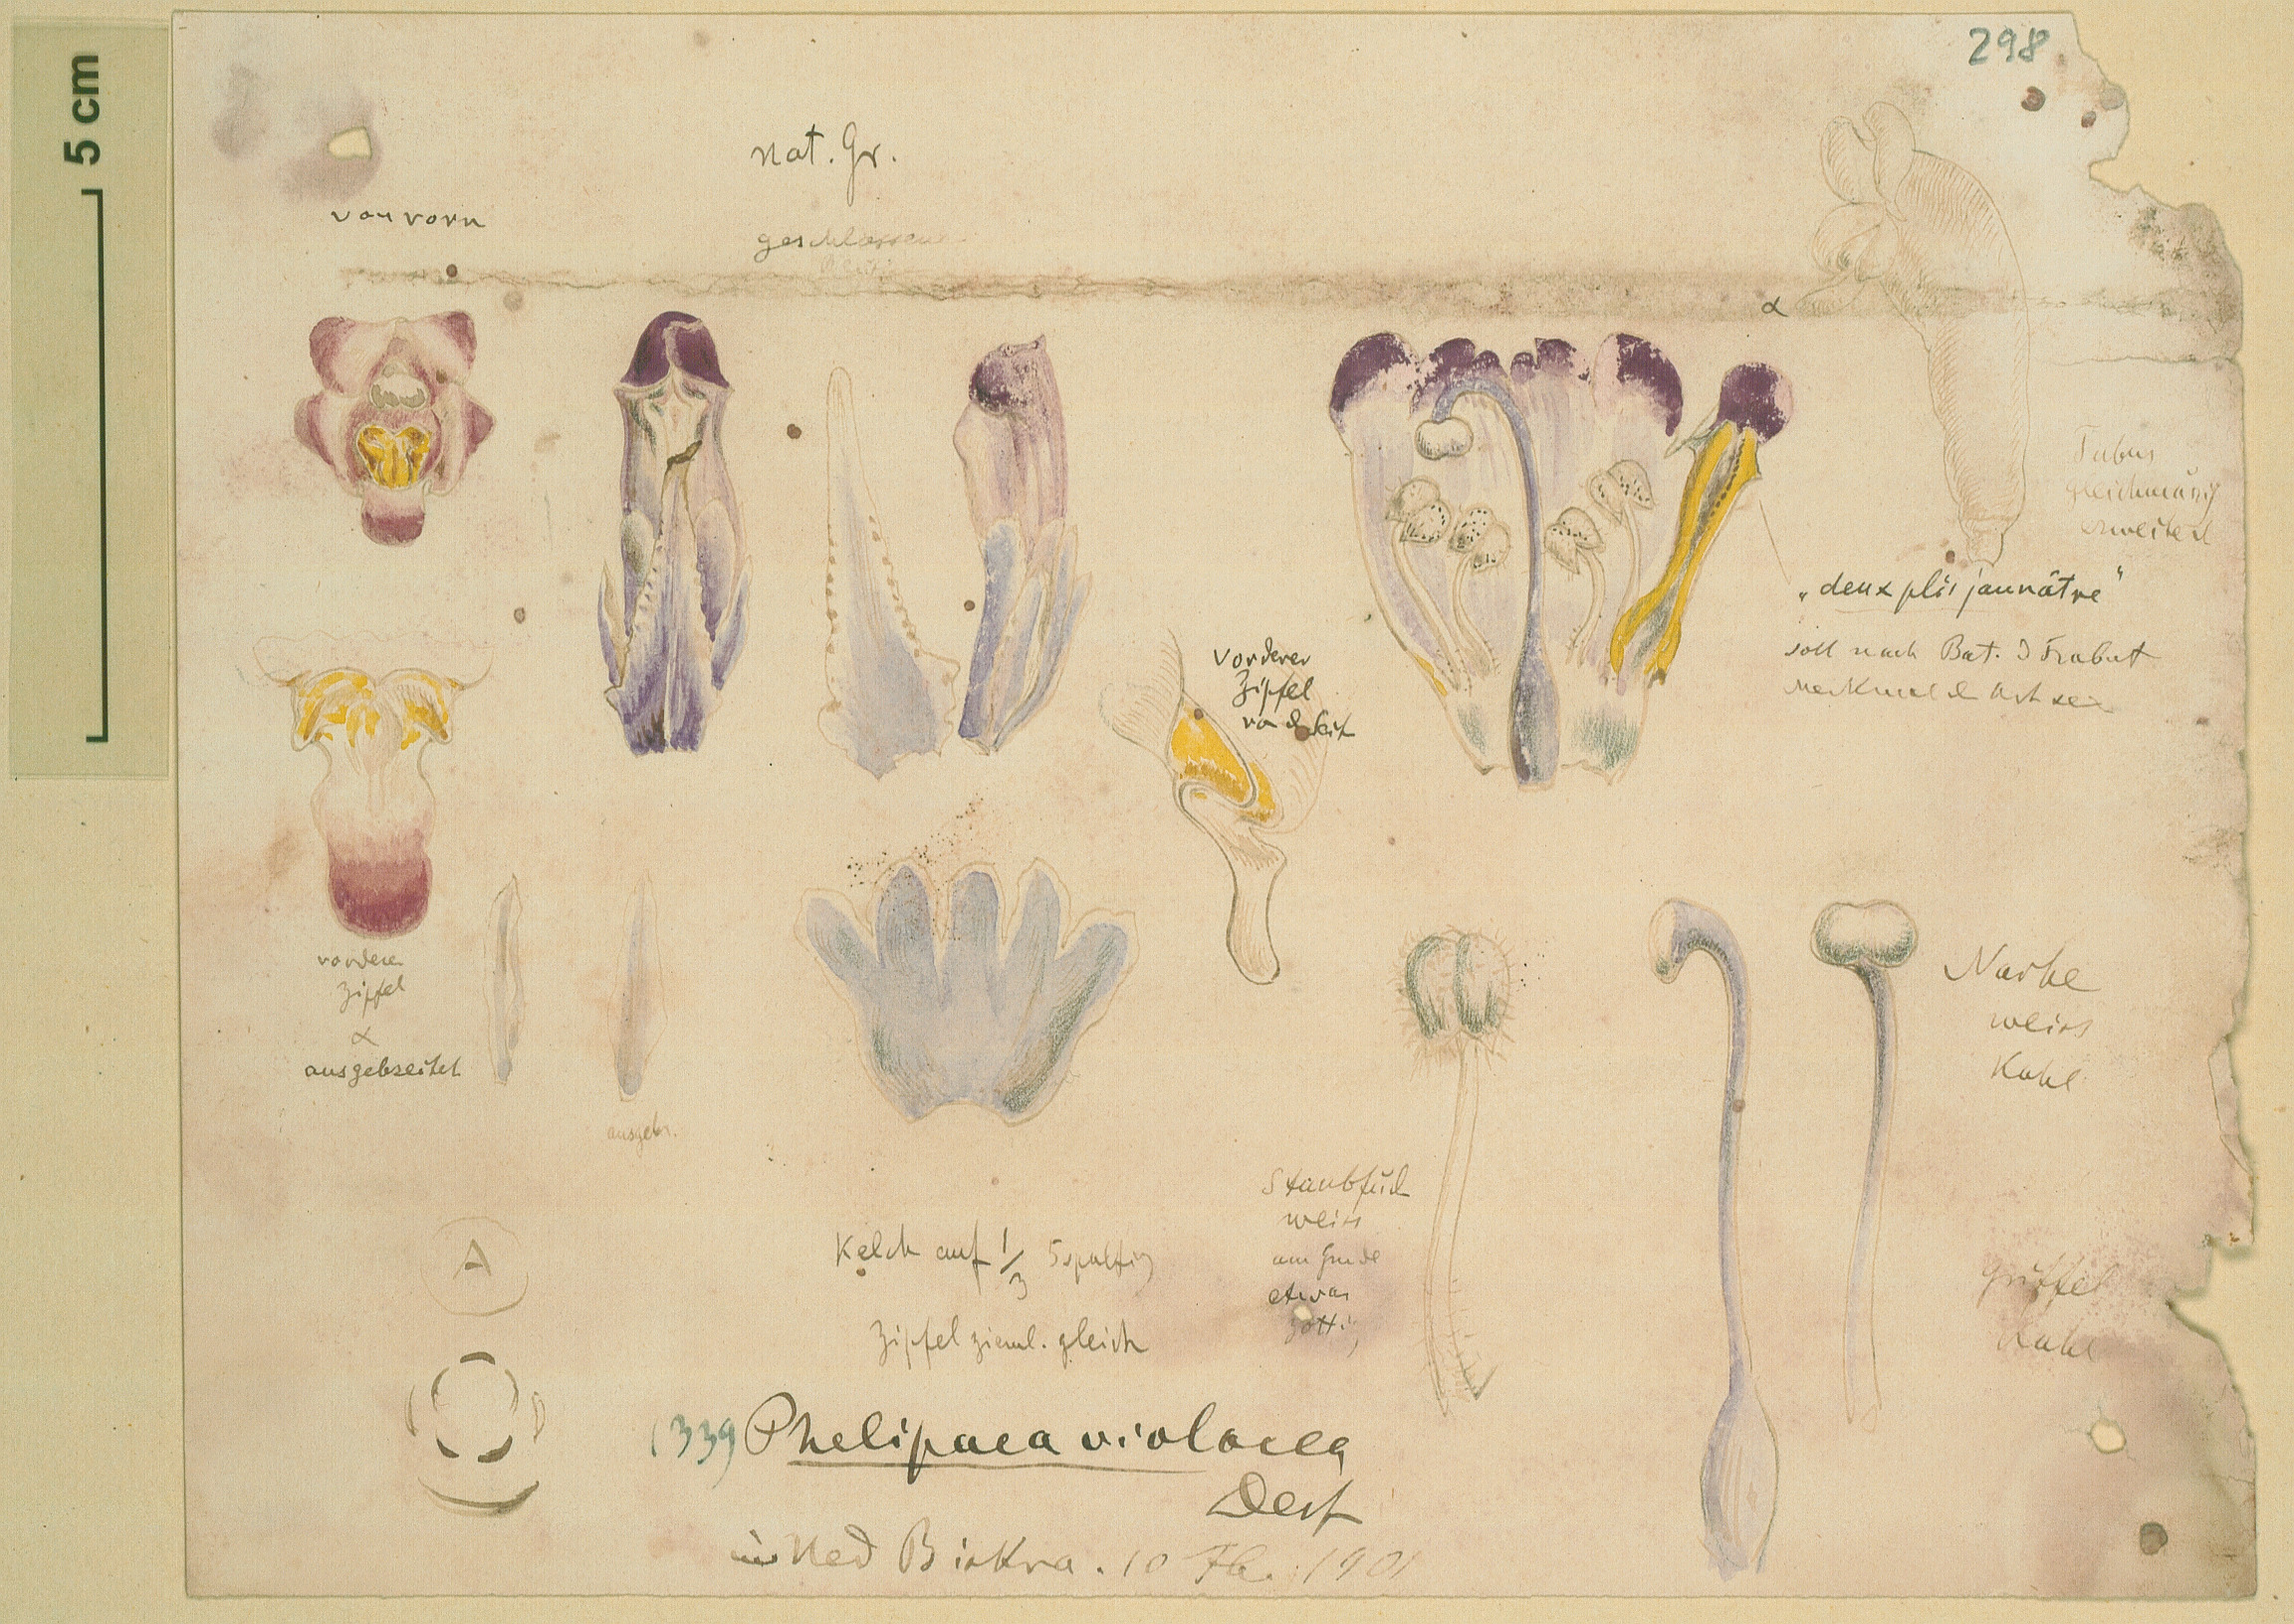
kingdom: Plantae
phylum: Tracheophyta
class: Magnoliopsida
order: Lamiales
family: Orobanchaceae
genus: Cistanche
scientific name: Cistanche violacea
